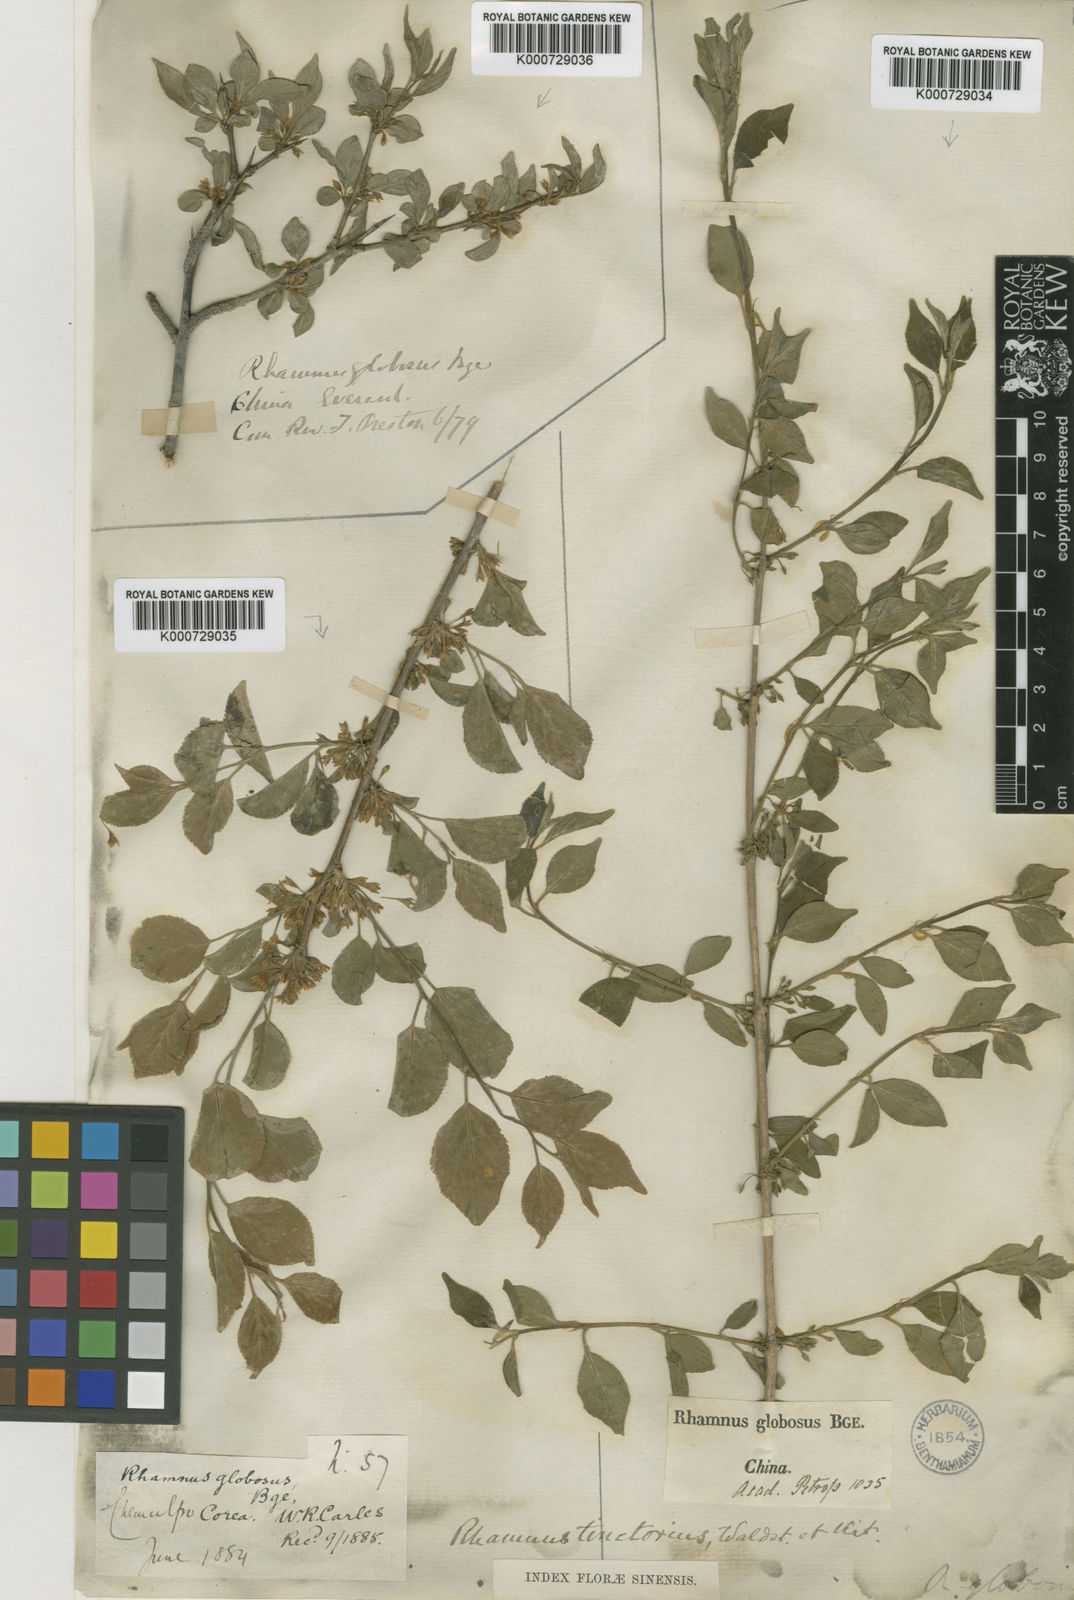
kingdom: Plantae
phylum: Tracheophyta
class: Magnoliopsida
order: Rosales
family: Rhamnaceae
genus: Rhamnus
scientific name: Rhamnus globosa
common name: Lokao
